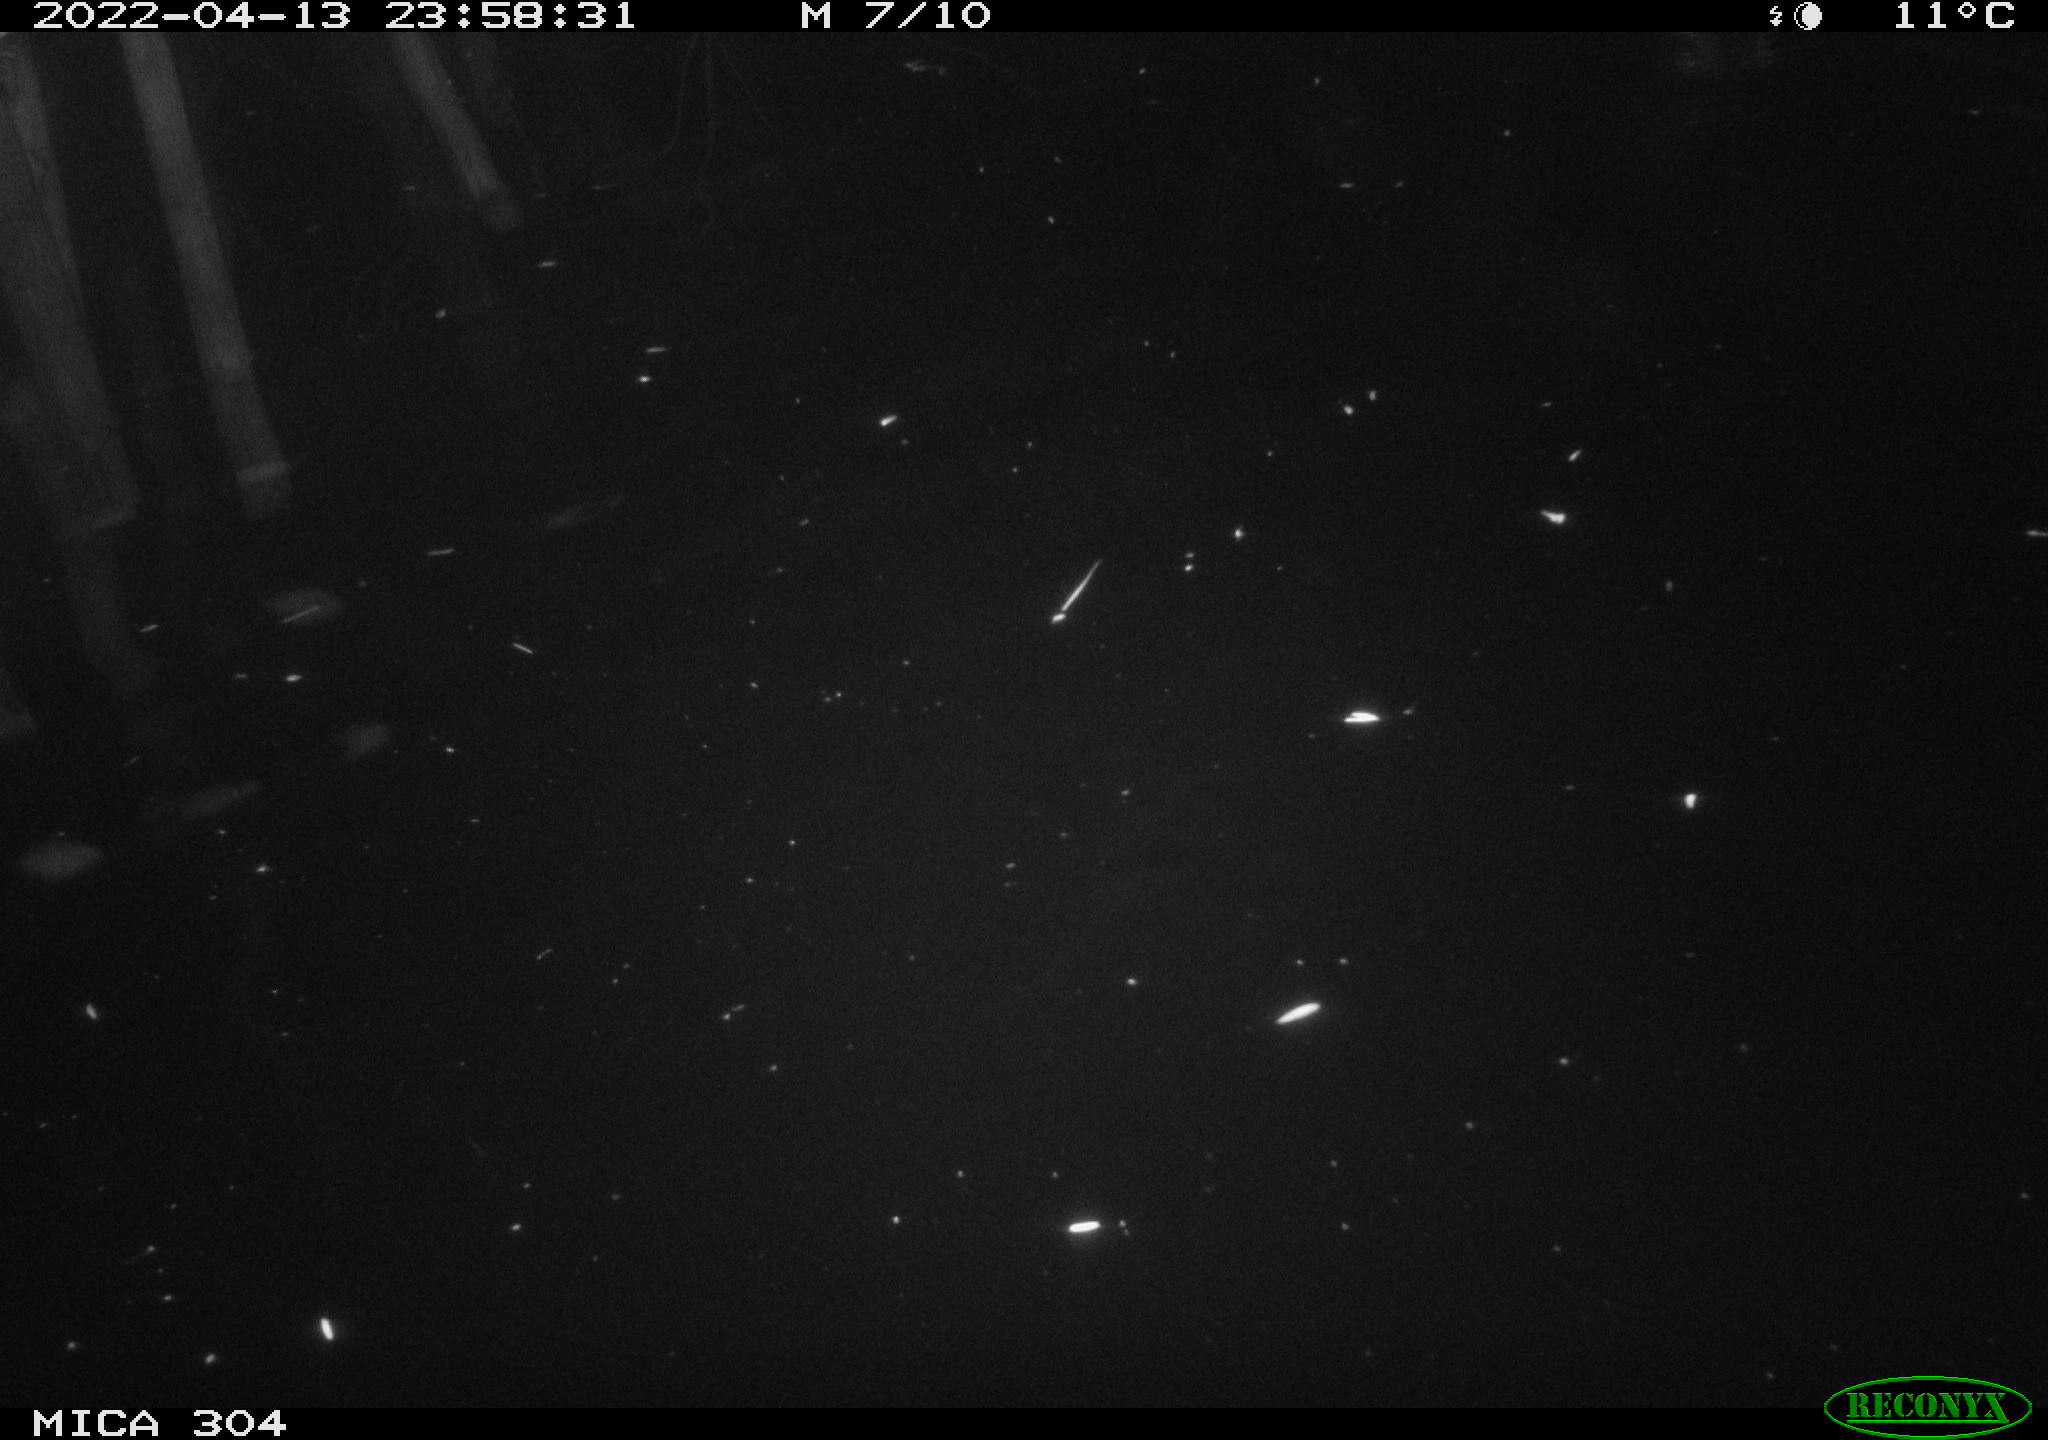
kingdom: Animalia
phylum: Chordata
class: Aves
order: Anseriformes
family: Anatidae
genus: Anas
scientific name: Anas platyrhynchos
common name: Mallard
